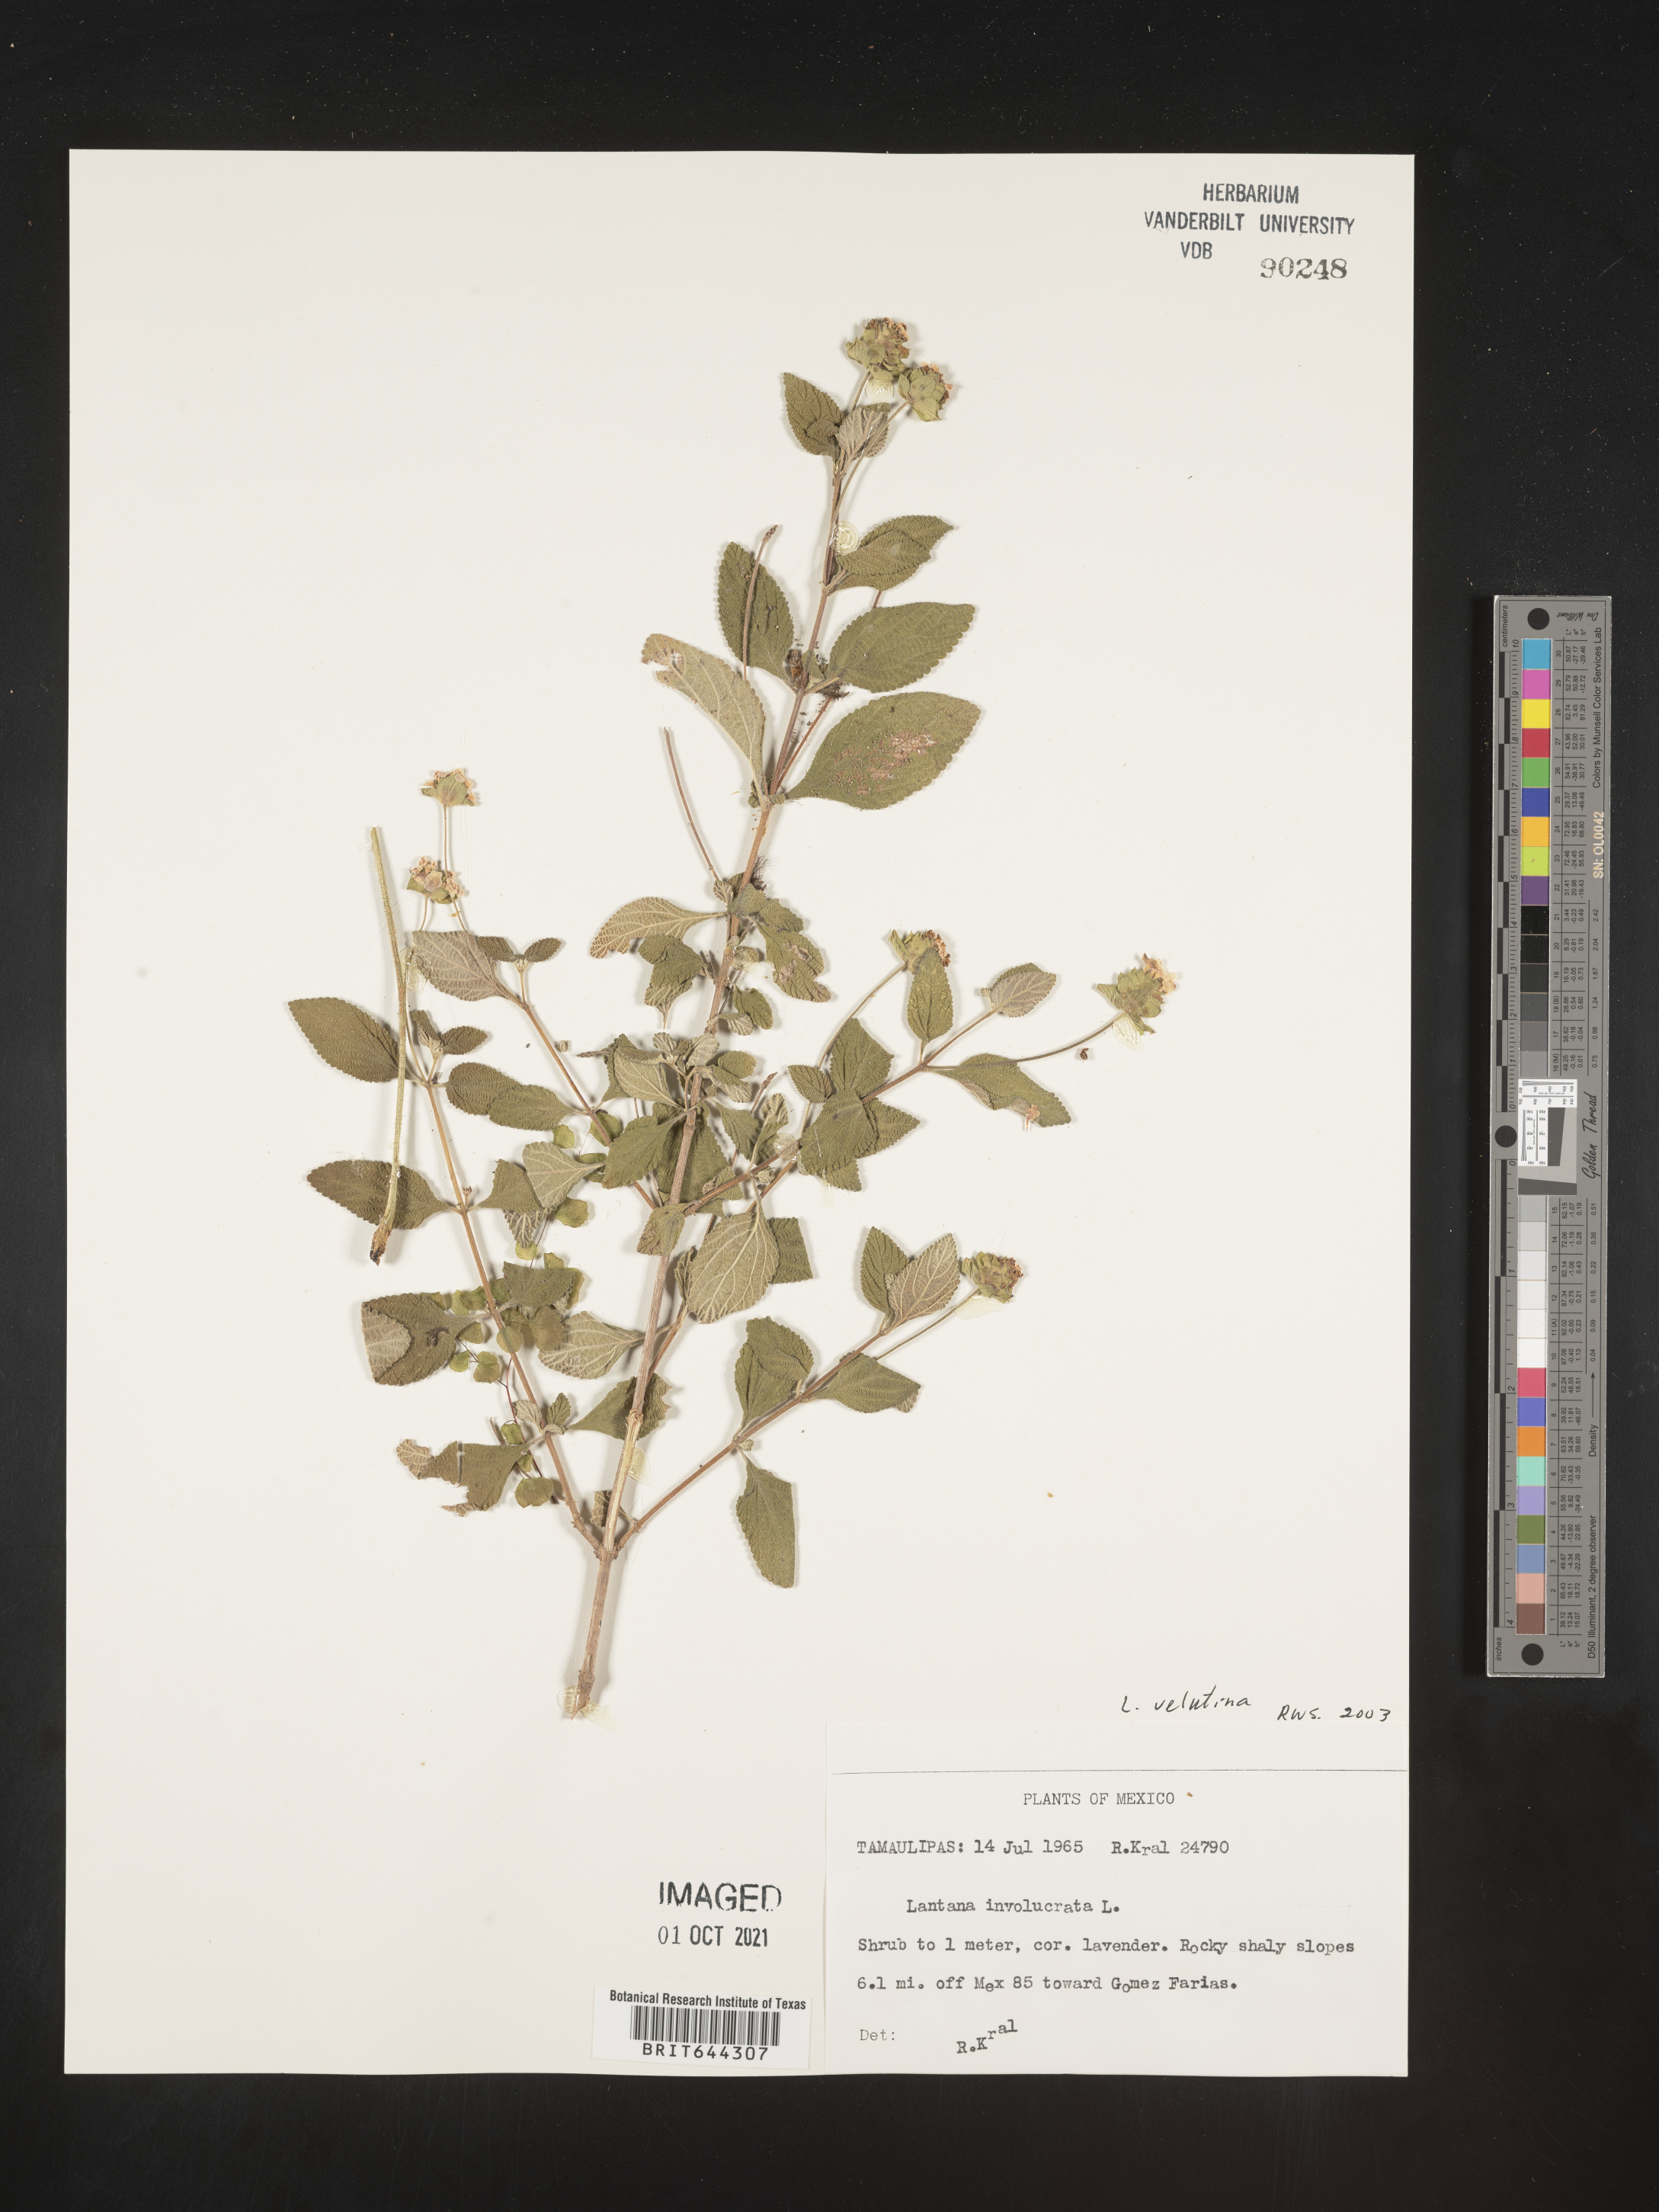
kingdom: Plantae
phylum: Tracheophyta
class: Magnoliopsida
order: Lamiales
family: Verbenaceae
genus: Lantana
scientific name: Lantana
